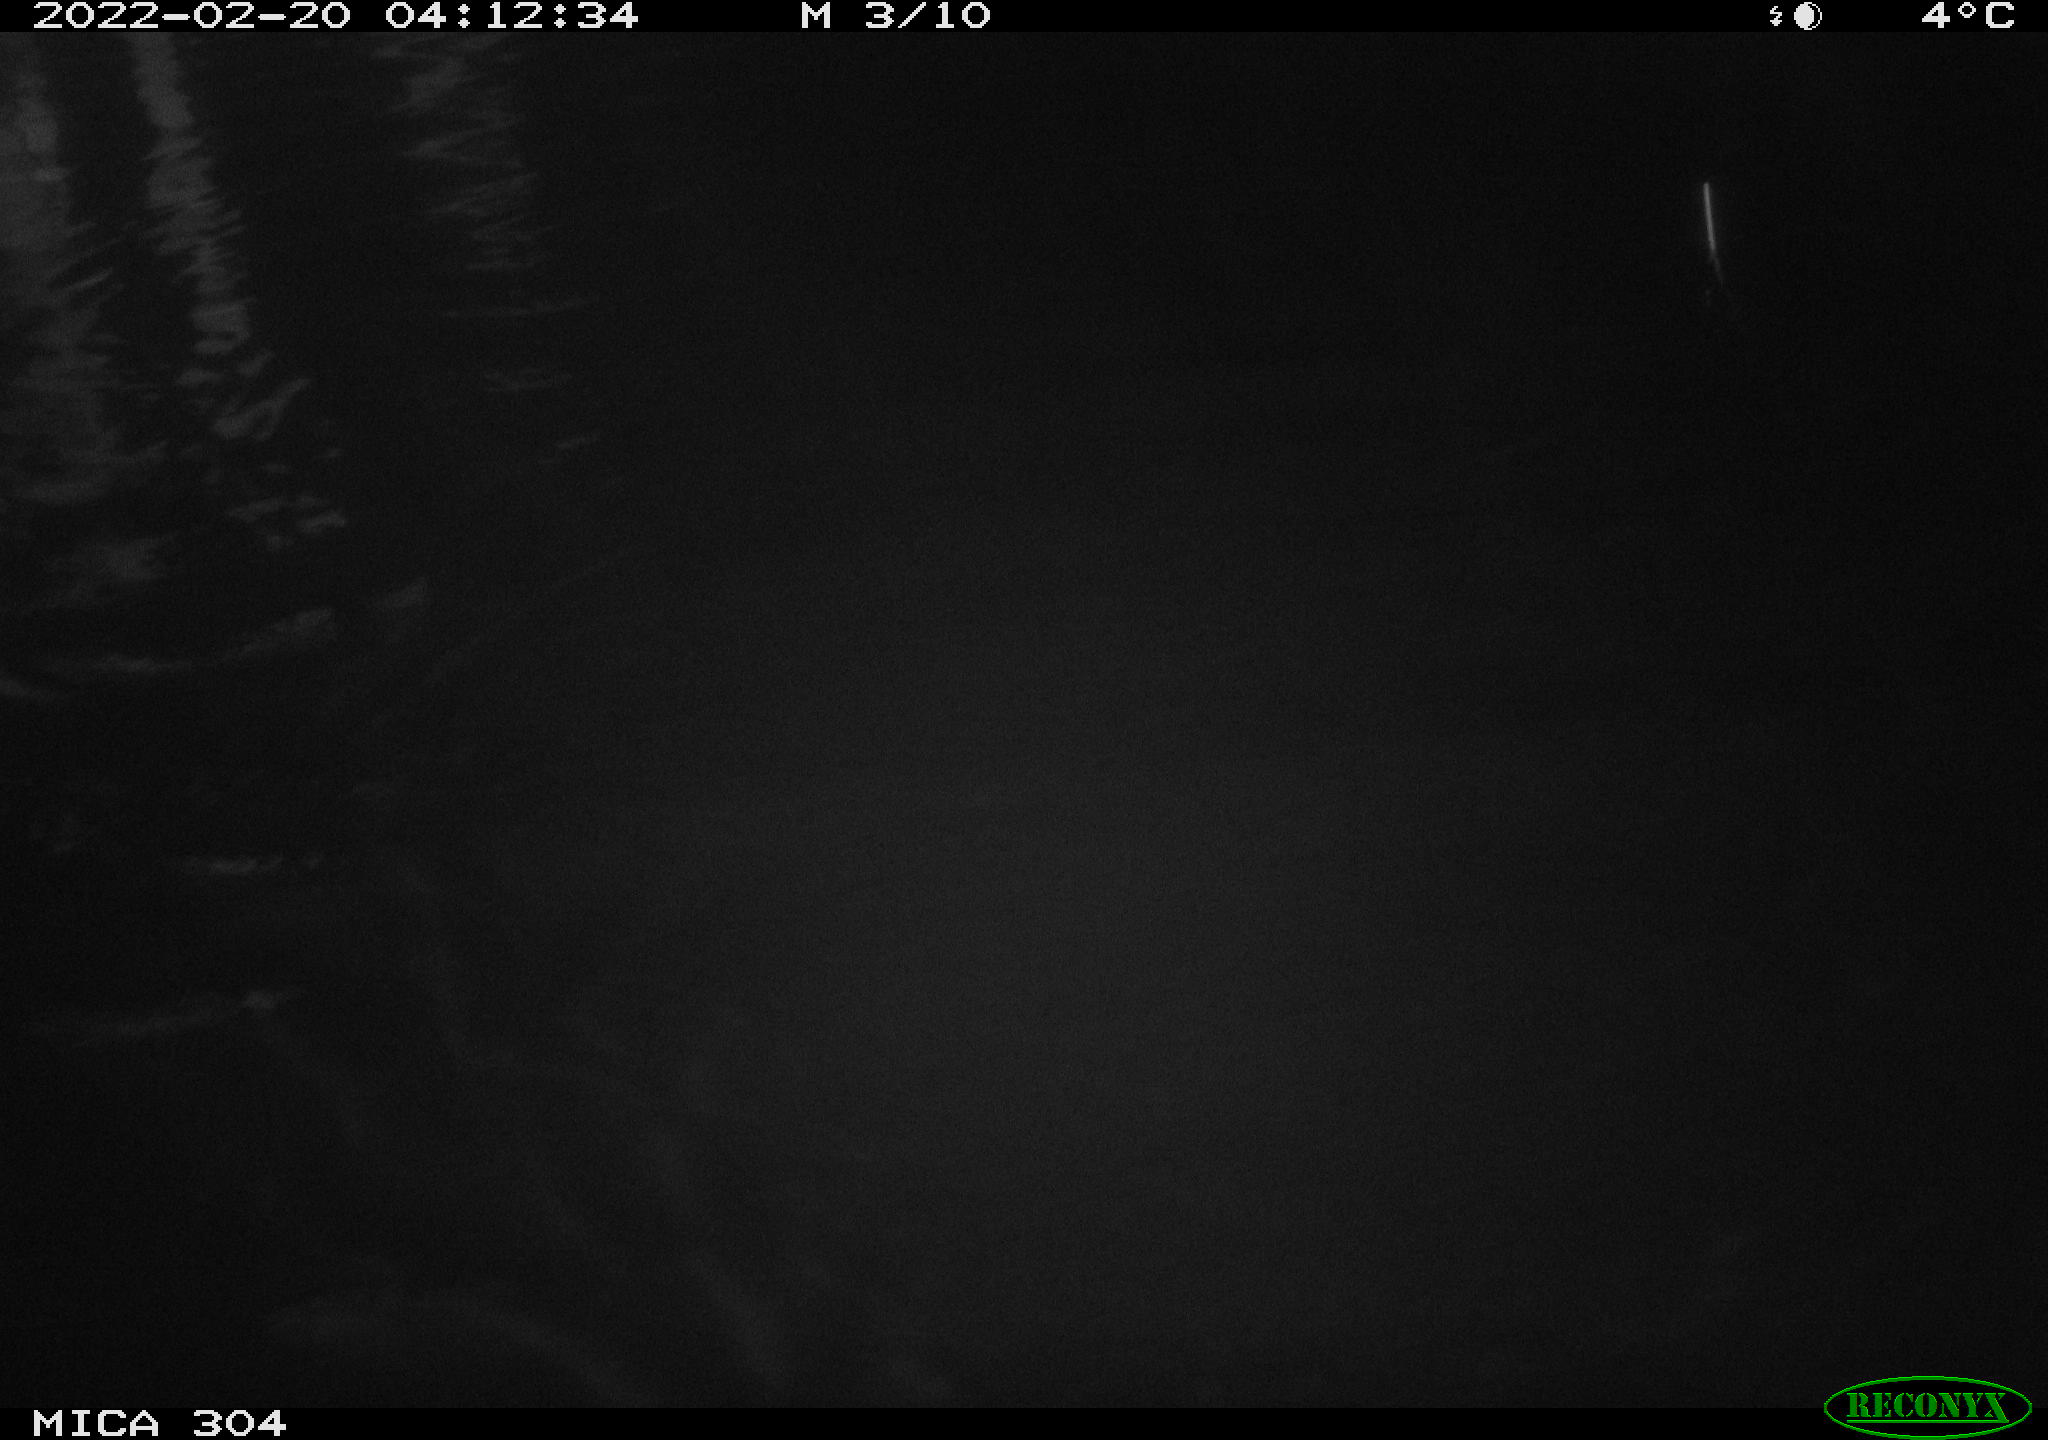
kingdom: Animalia
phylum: Chordata
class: Mammalia
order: Rodentia
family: Cricetidae
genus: Ondatra
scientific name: Ondatra zibethicus
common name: Muskrat
